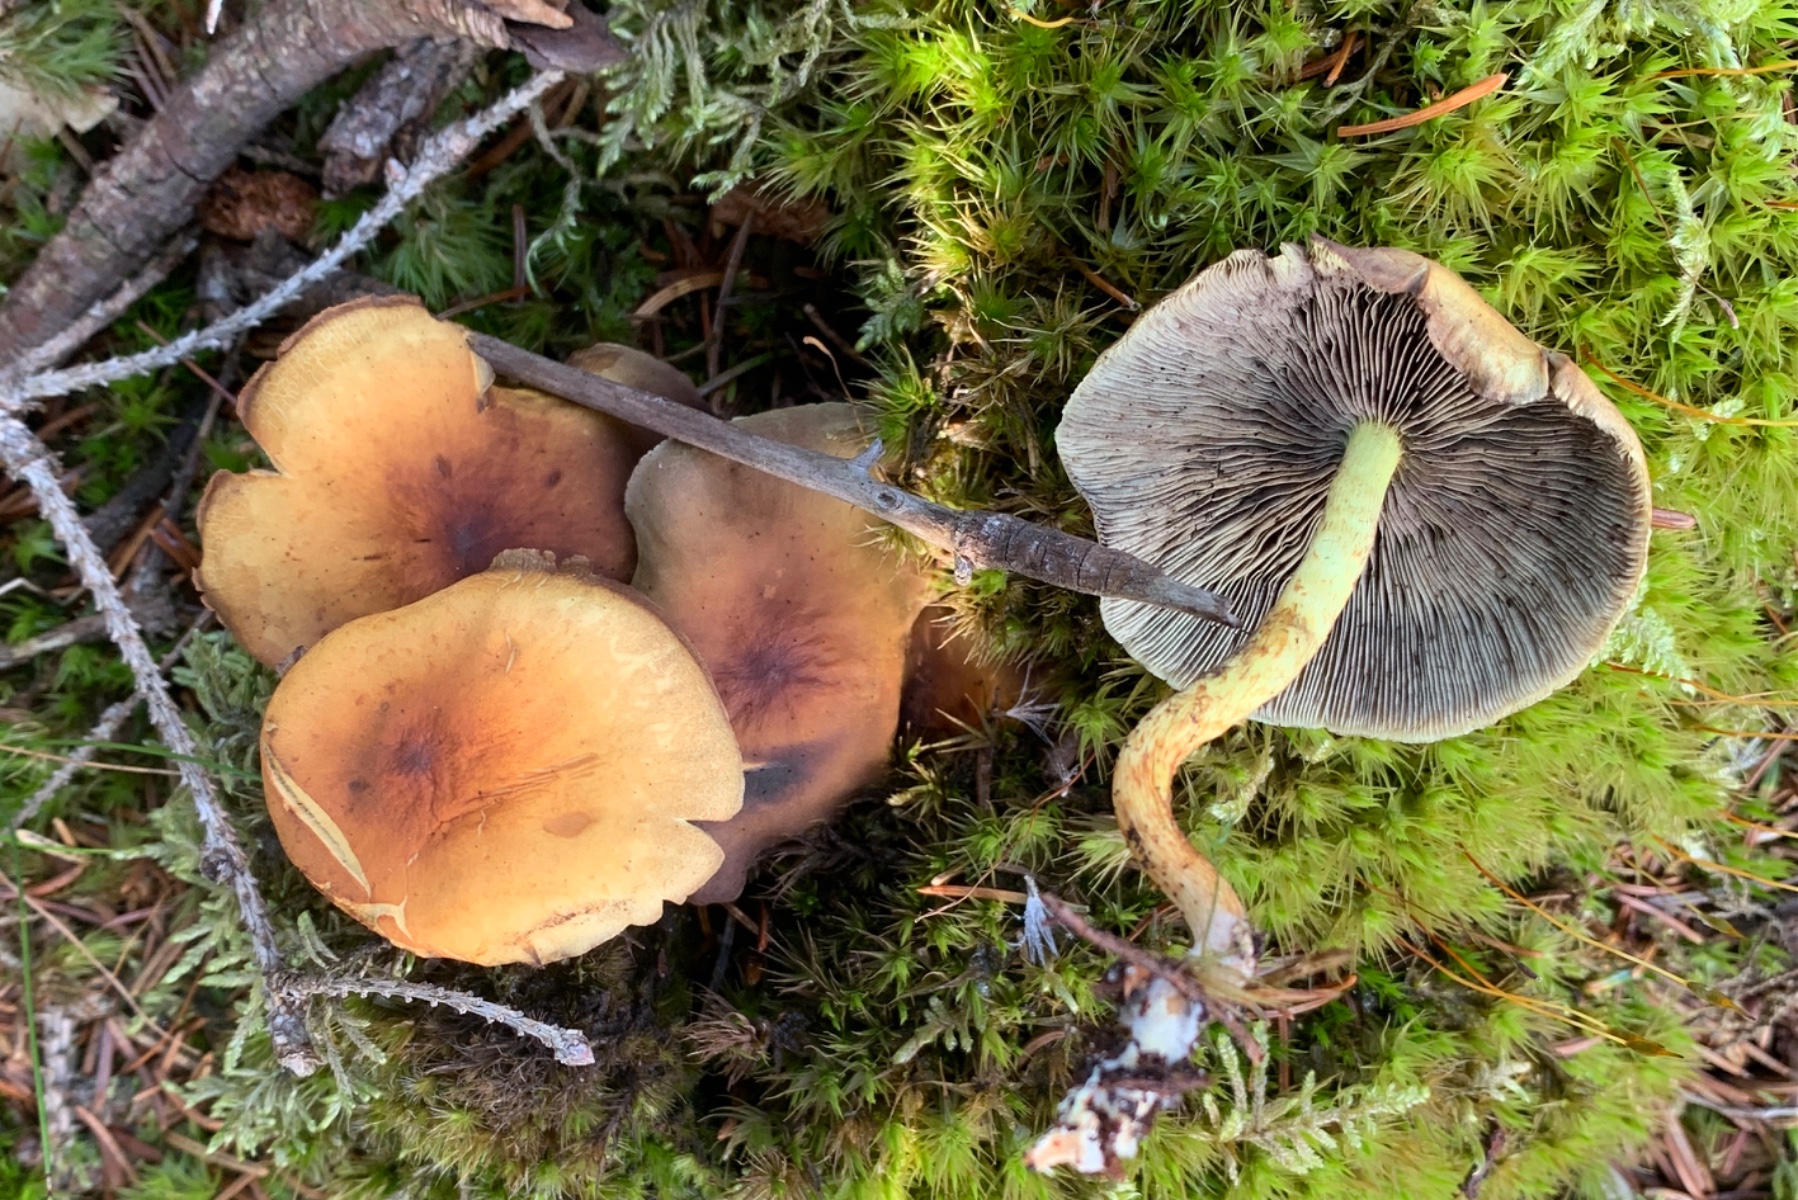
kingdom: Fungi
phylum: Basidiomycota
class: Agaricomycetes
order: Agaricales
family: Strophariaceae
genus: Hypholoma
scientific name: Hypholoma fasciculare
